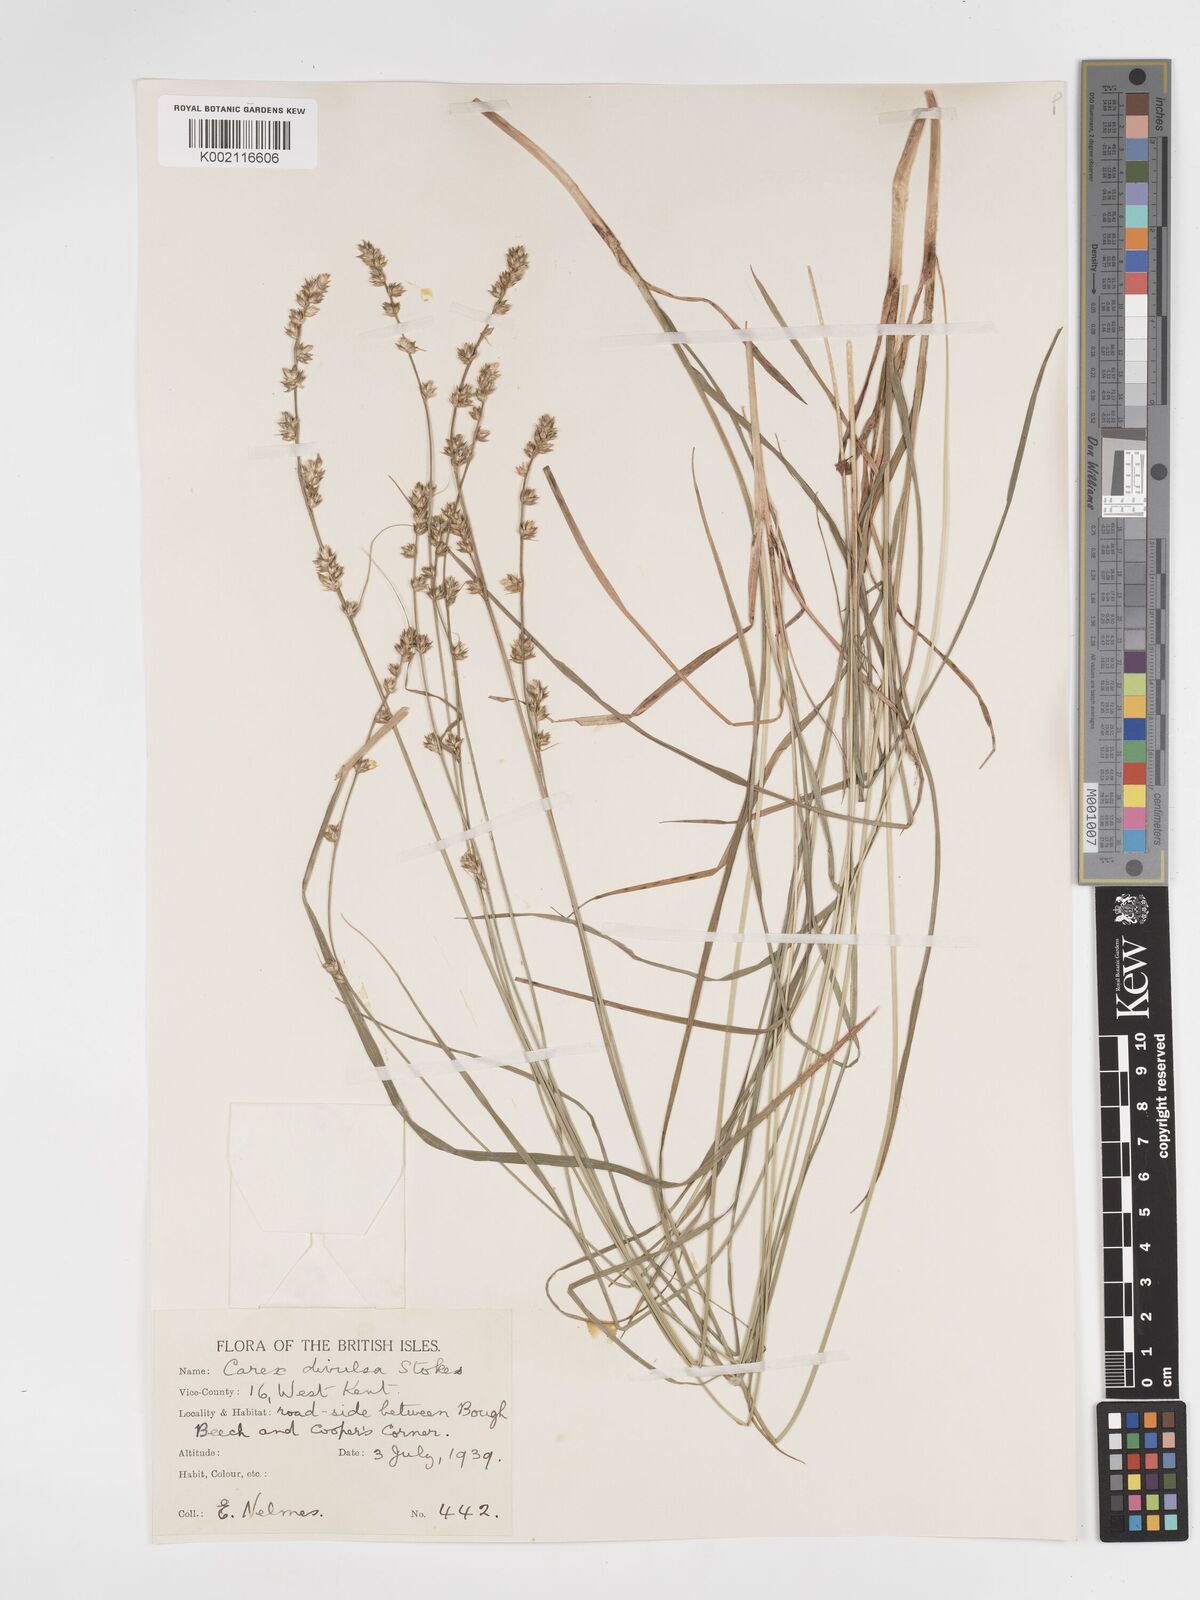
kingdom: Plantae
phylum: Tracheophyta
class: Liliopsida
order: Poales
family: Cyperaceae
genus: Carex
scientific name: Carex divulsa
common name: Grassland sedge
